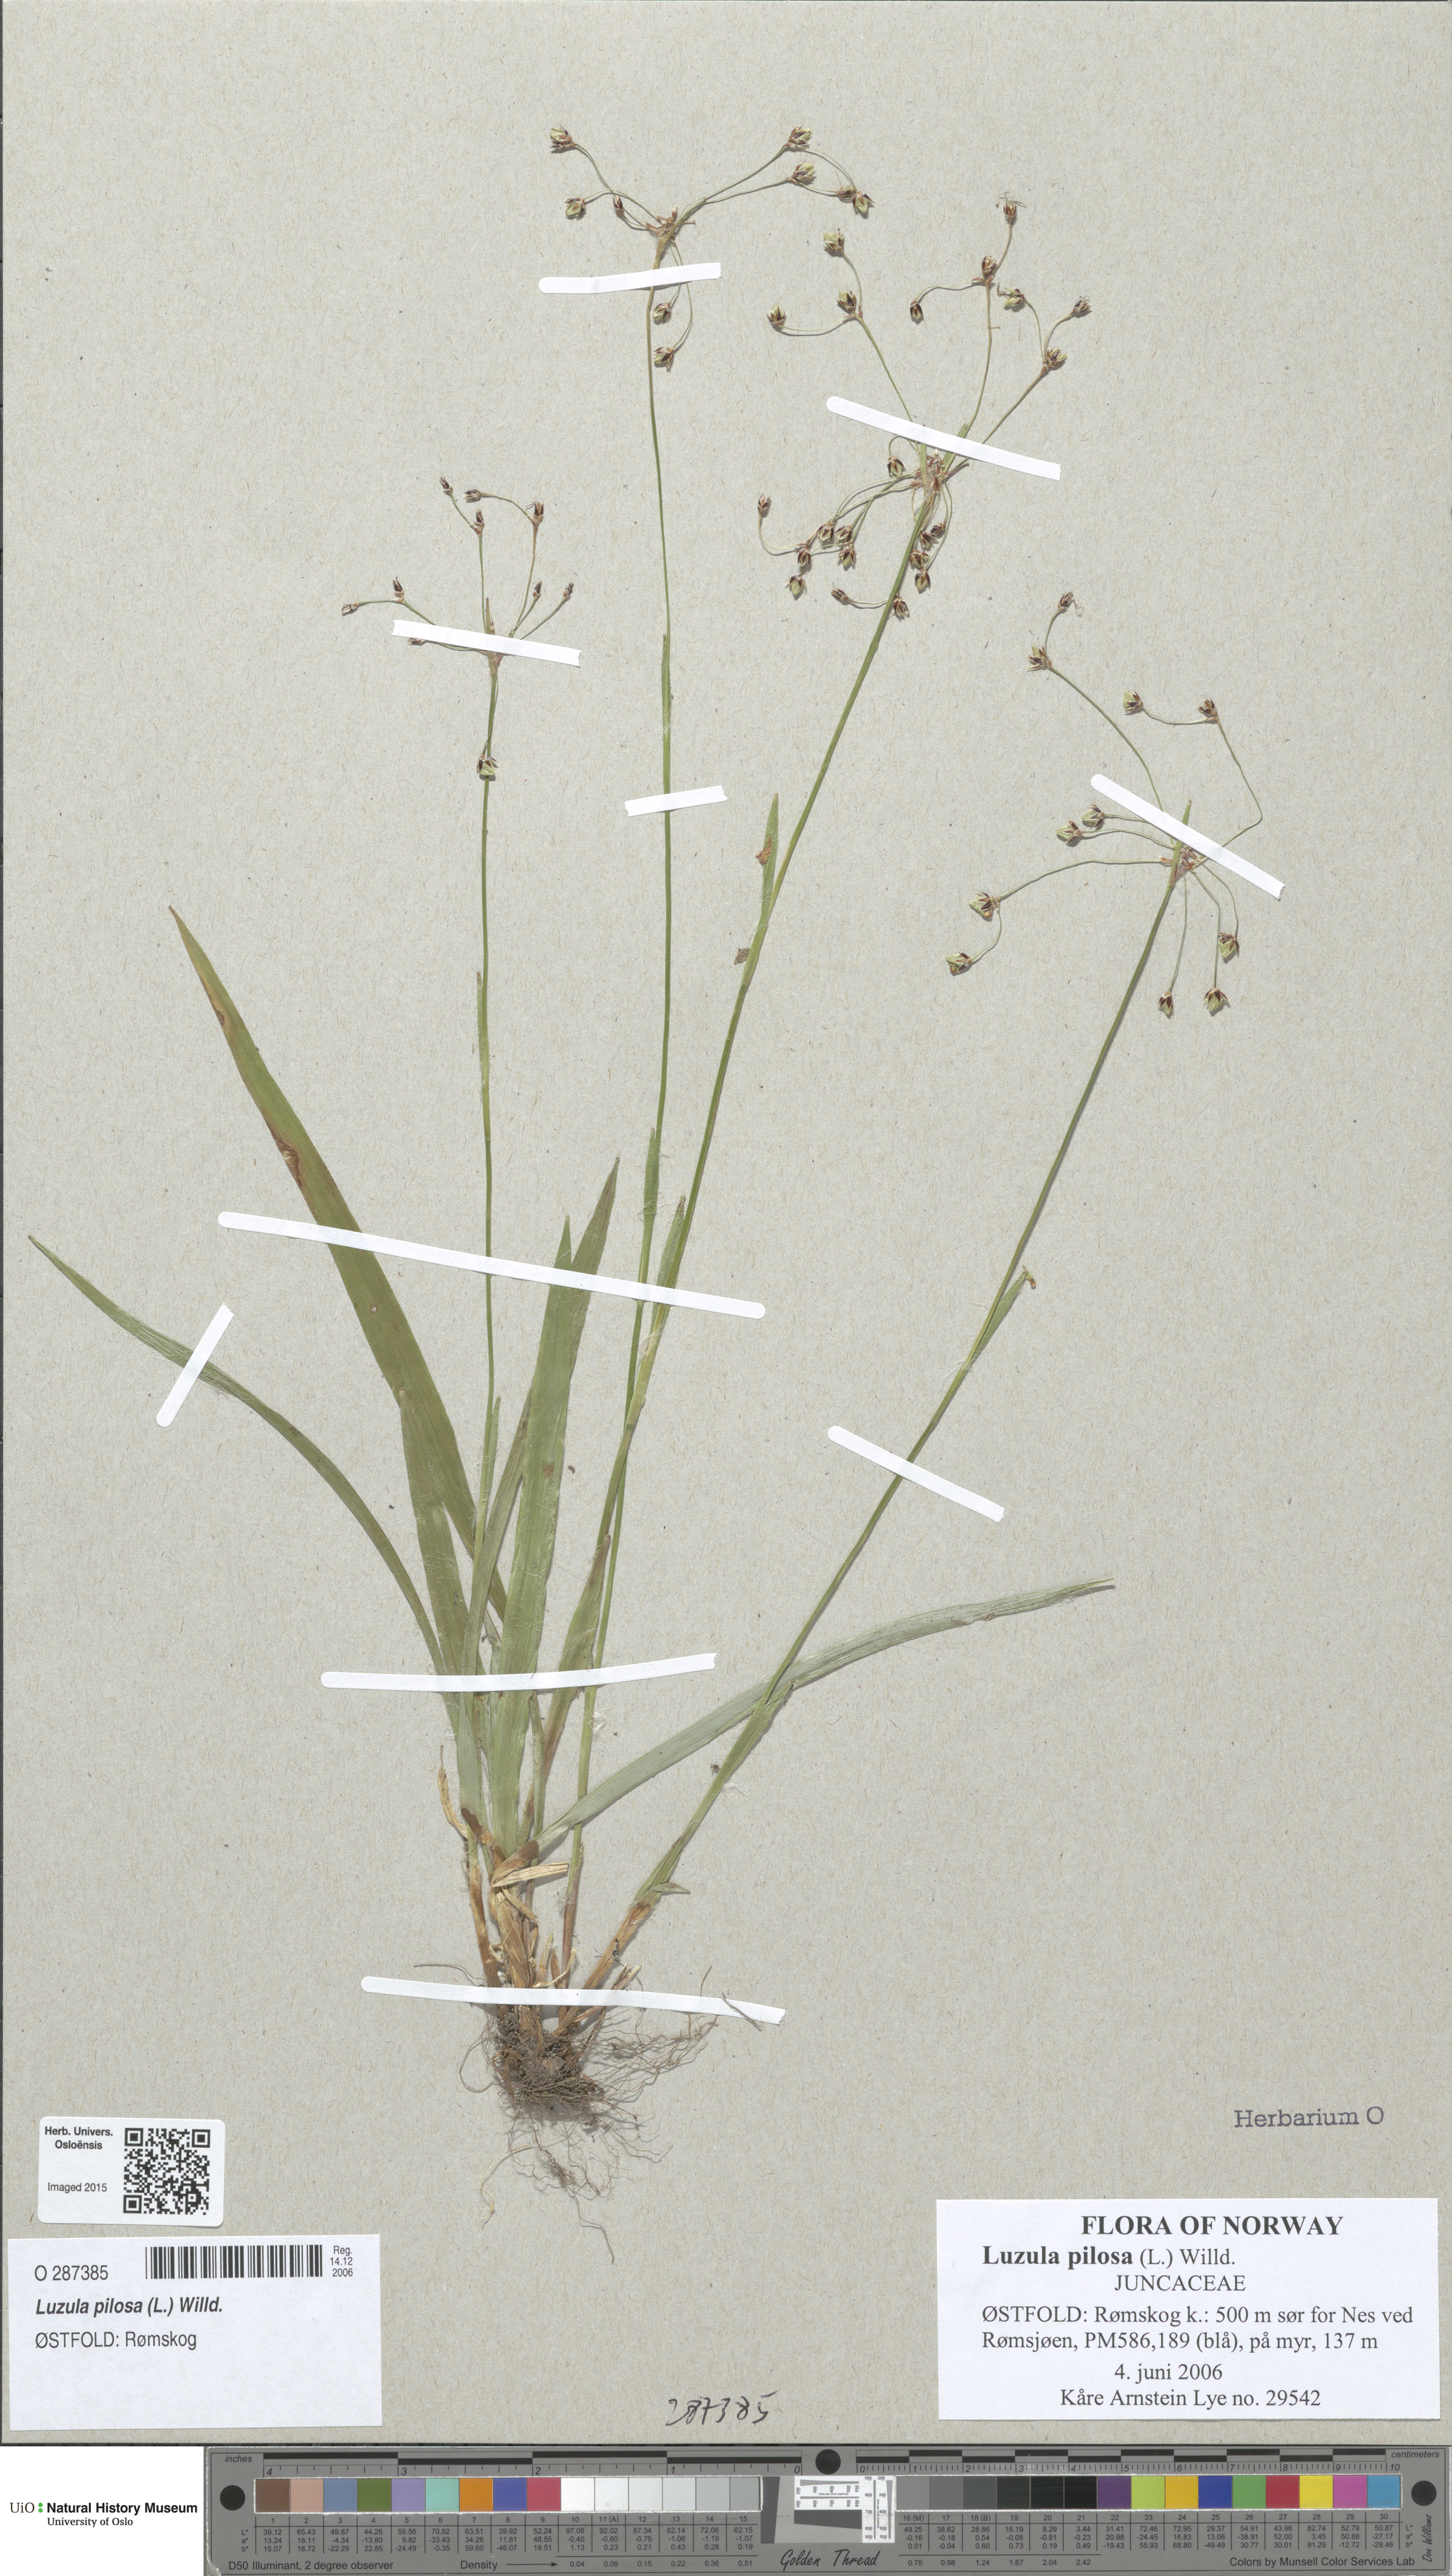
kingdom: Plantae
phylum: Tracheophyta
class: Liliopsida
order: Poales
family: Juncaceae
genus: Luzula
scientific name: Luzula pilosa
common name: Hairy wood-rush
